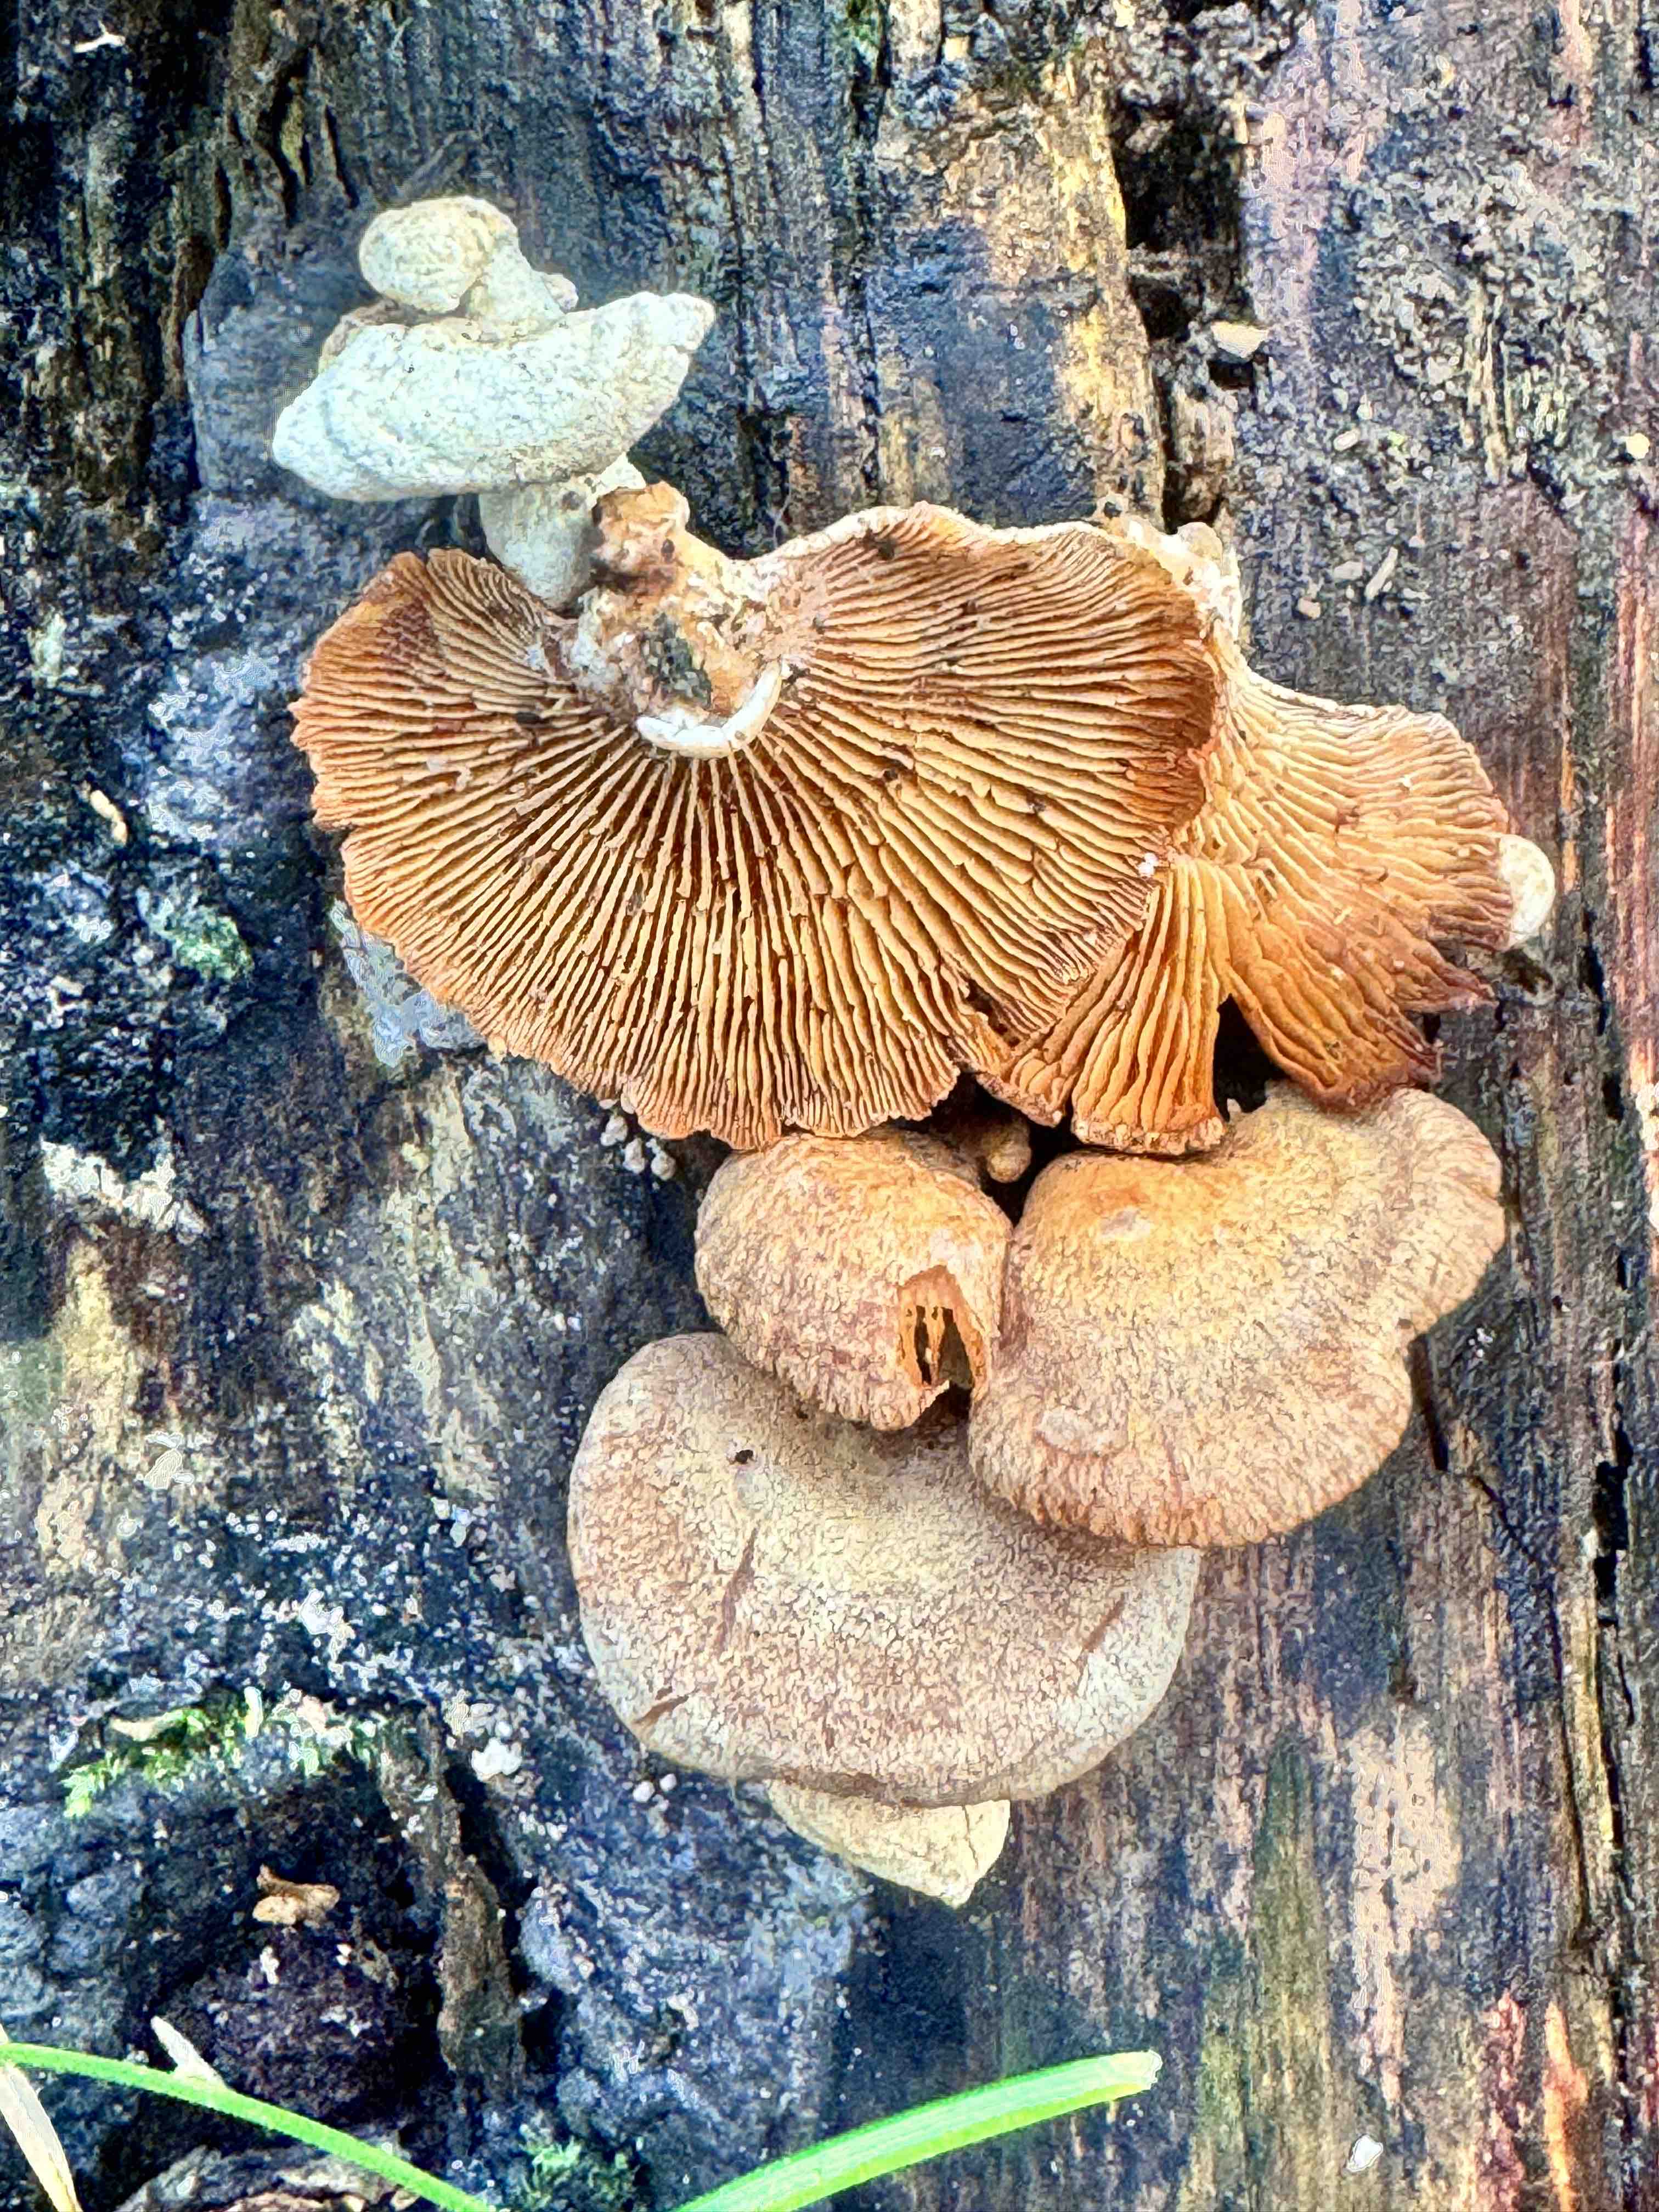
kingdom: Fungi
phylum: Basidiomycota
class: Agaricomycetes
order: Agaricales
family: Mycenaceae
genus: Panellus
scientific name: Panellus stipticus
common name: kliddet epaulethat
